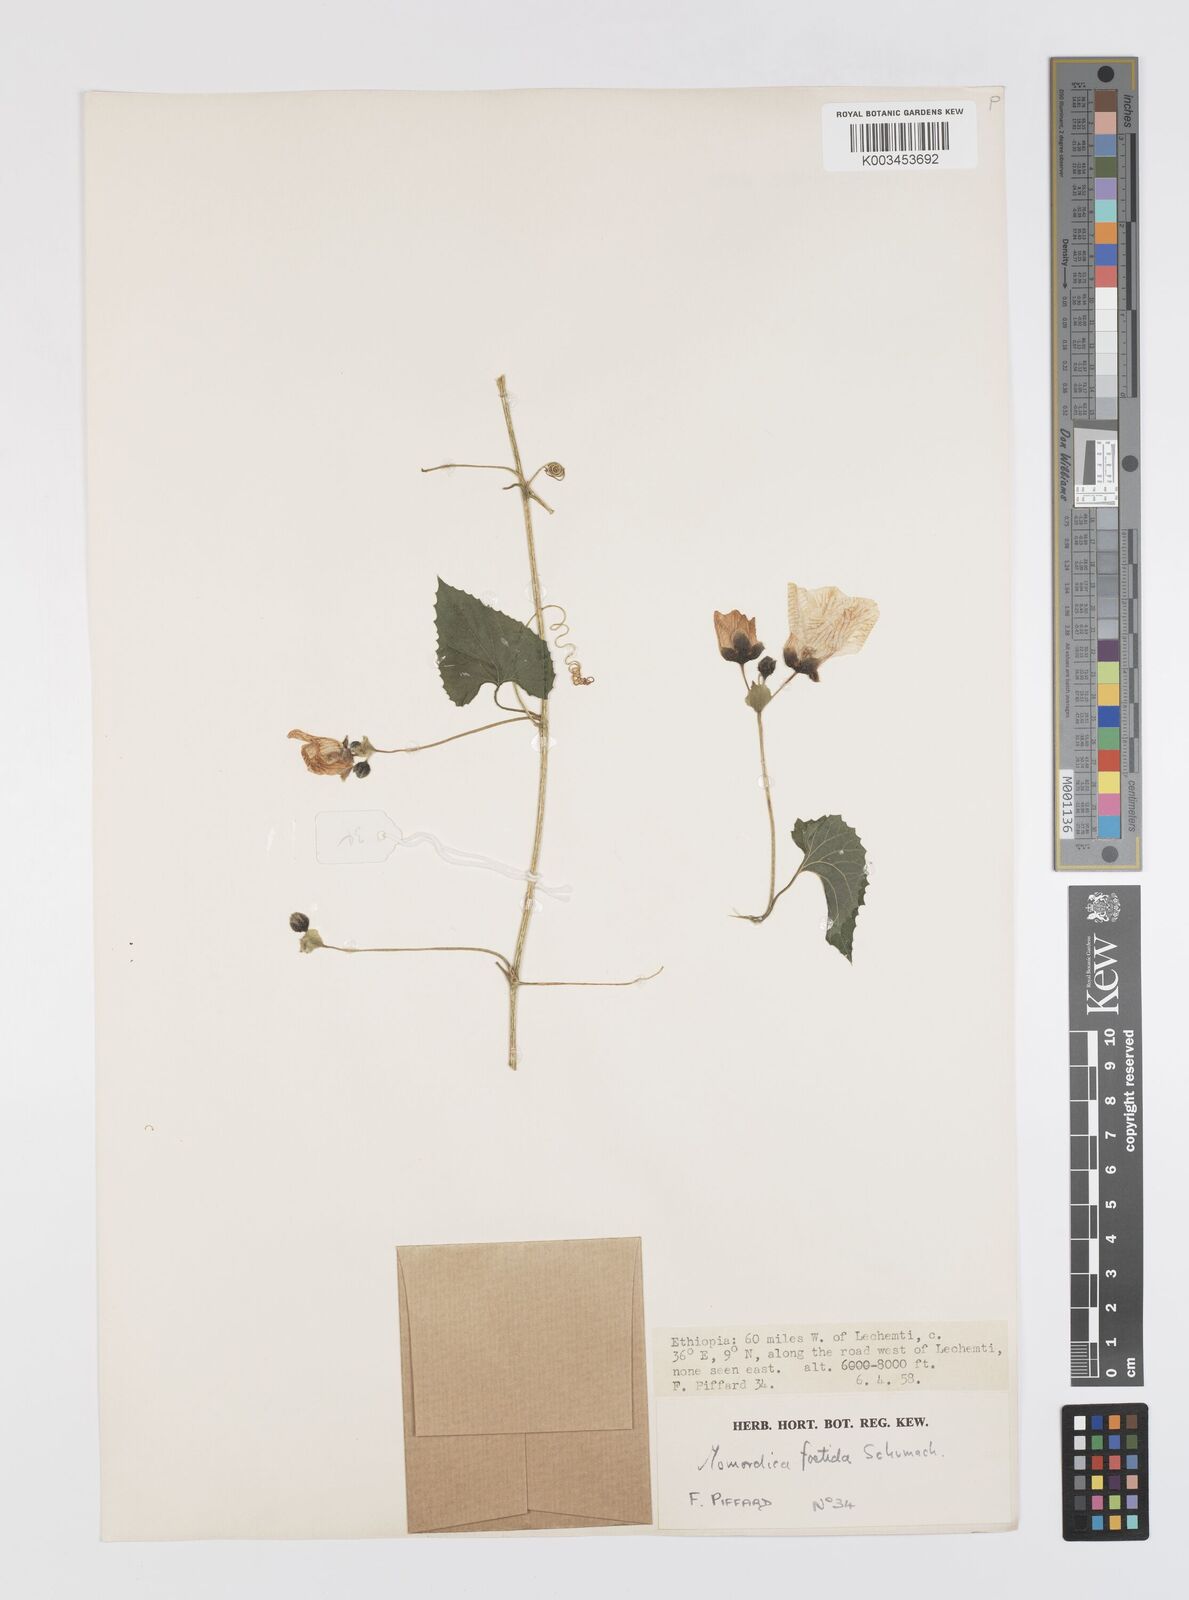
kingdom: Plantae
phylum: Tracheophyta
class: Magnoliopsida
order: Cucurbitales
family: Cucurbitaceae
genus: Momordica
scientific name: Momordica foetida
